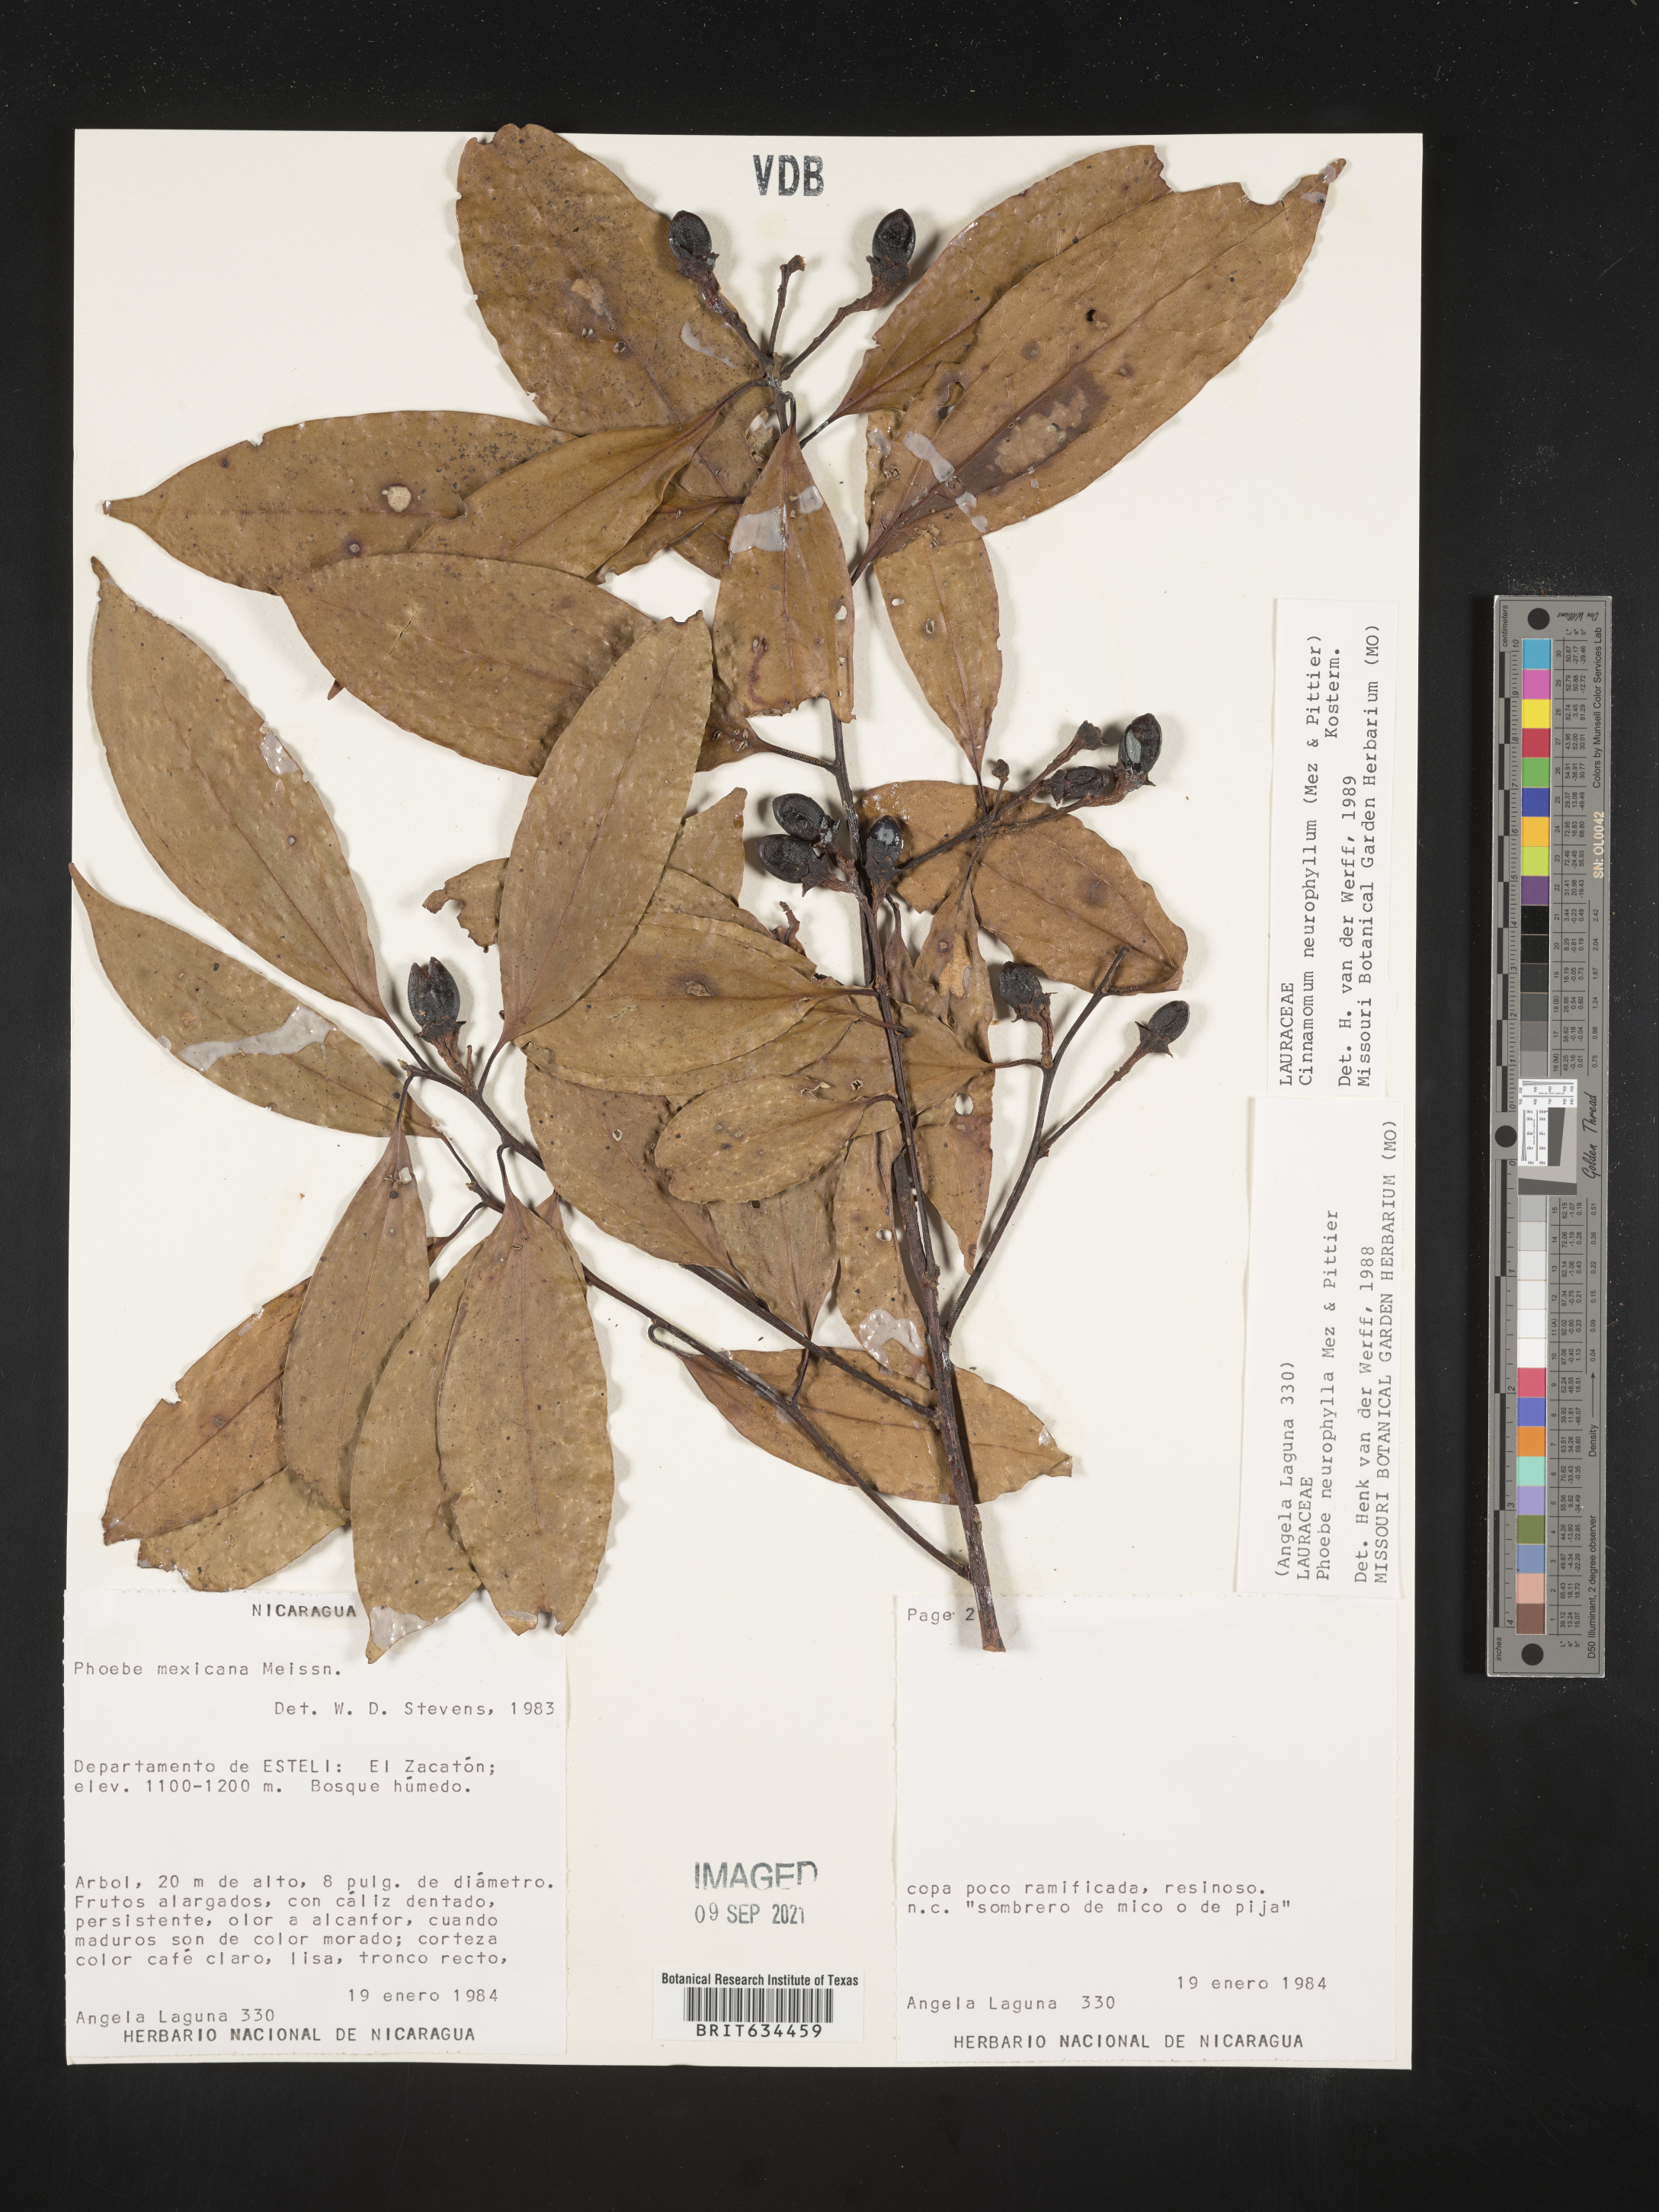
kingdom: Plantae
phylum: Tracheophyta
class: Magnoliopsida
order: Laurales
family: Lauraceae
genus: Phoebe
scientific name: Phoebe
